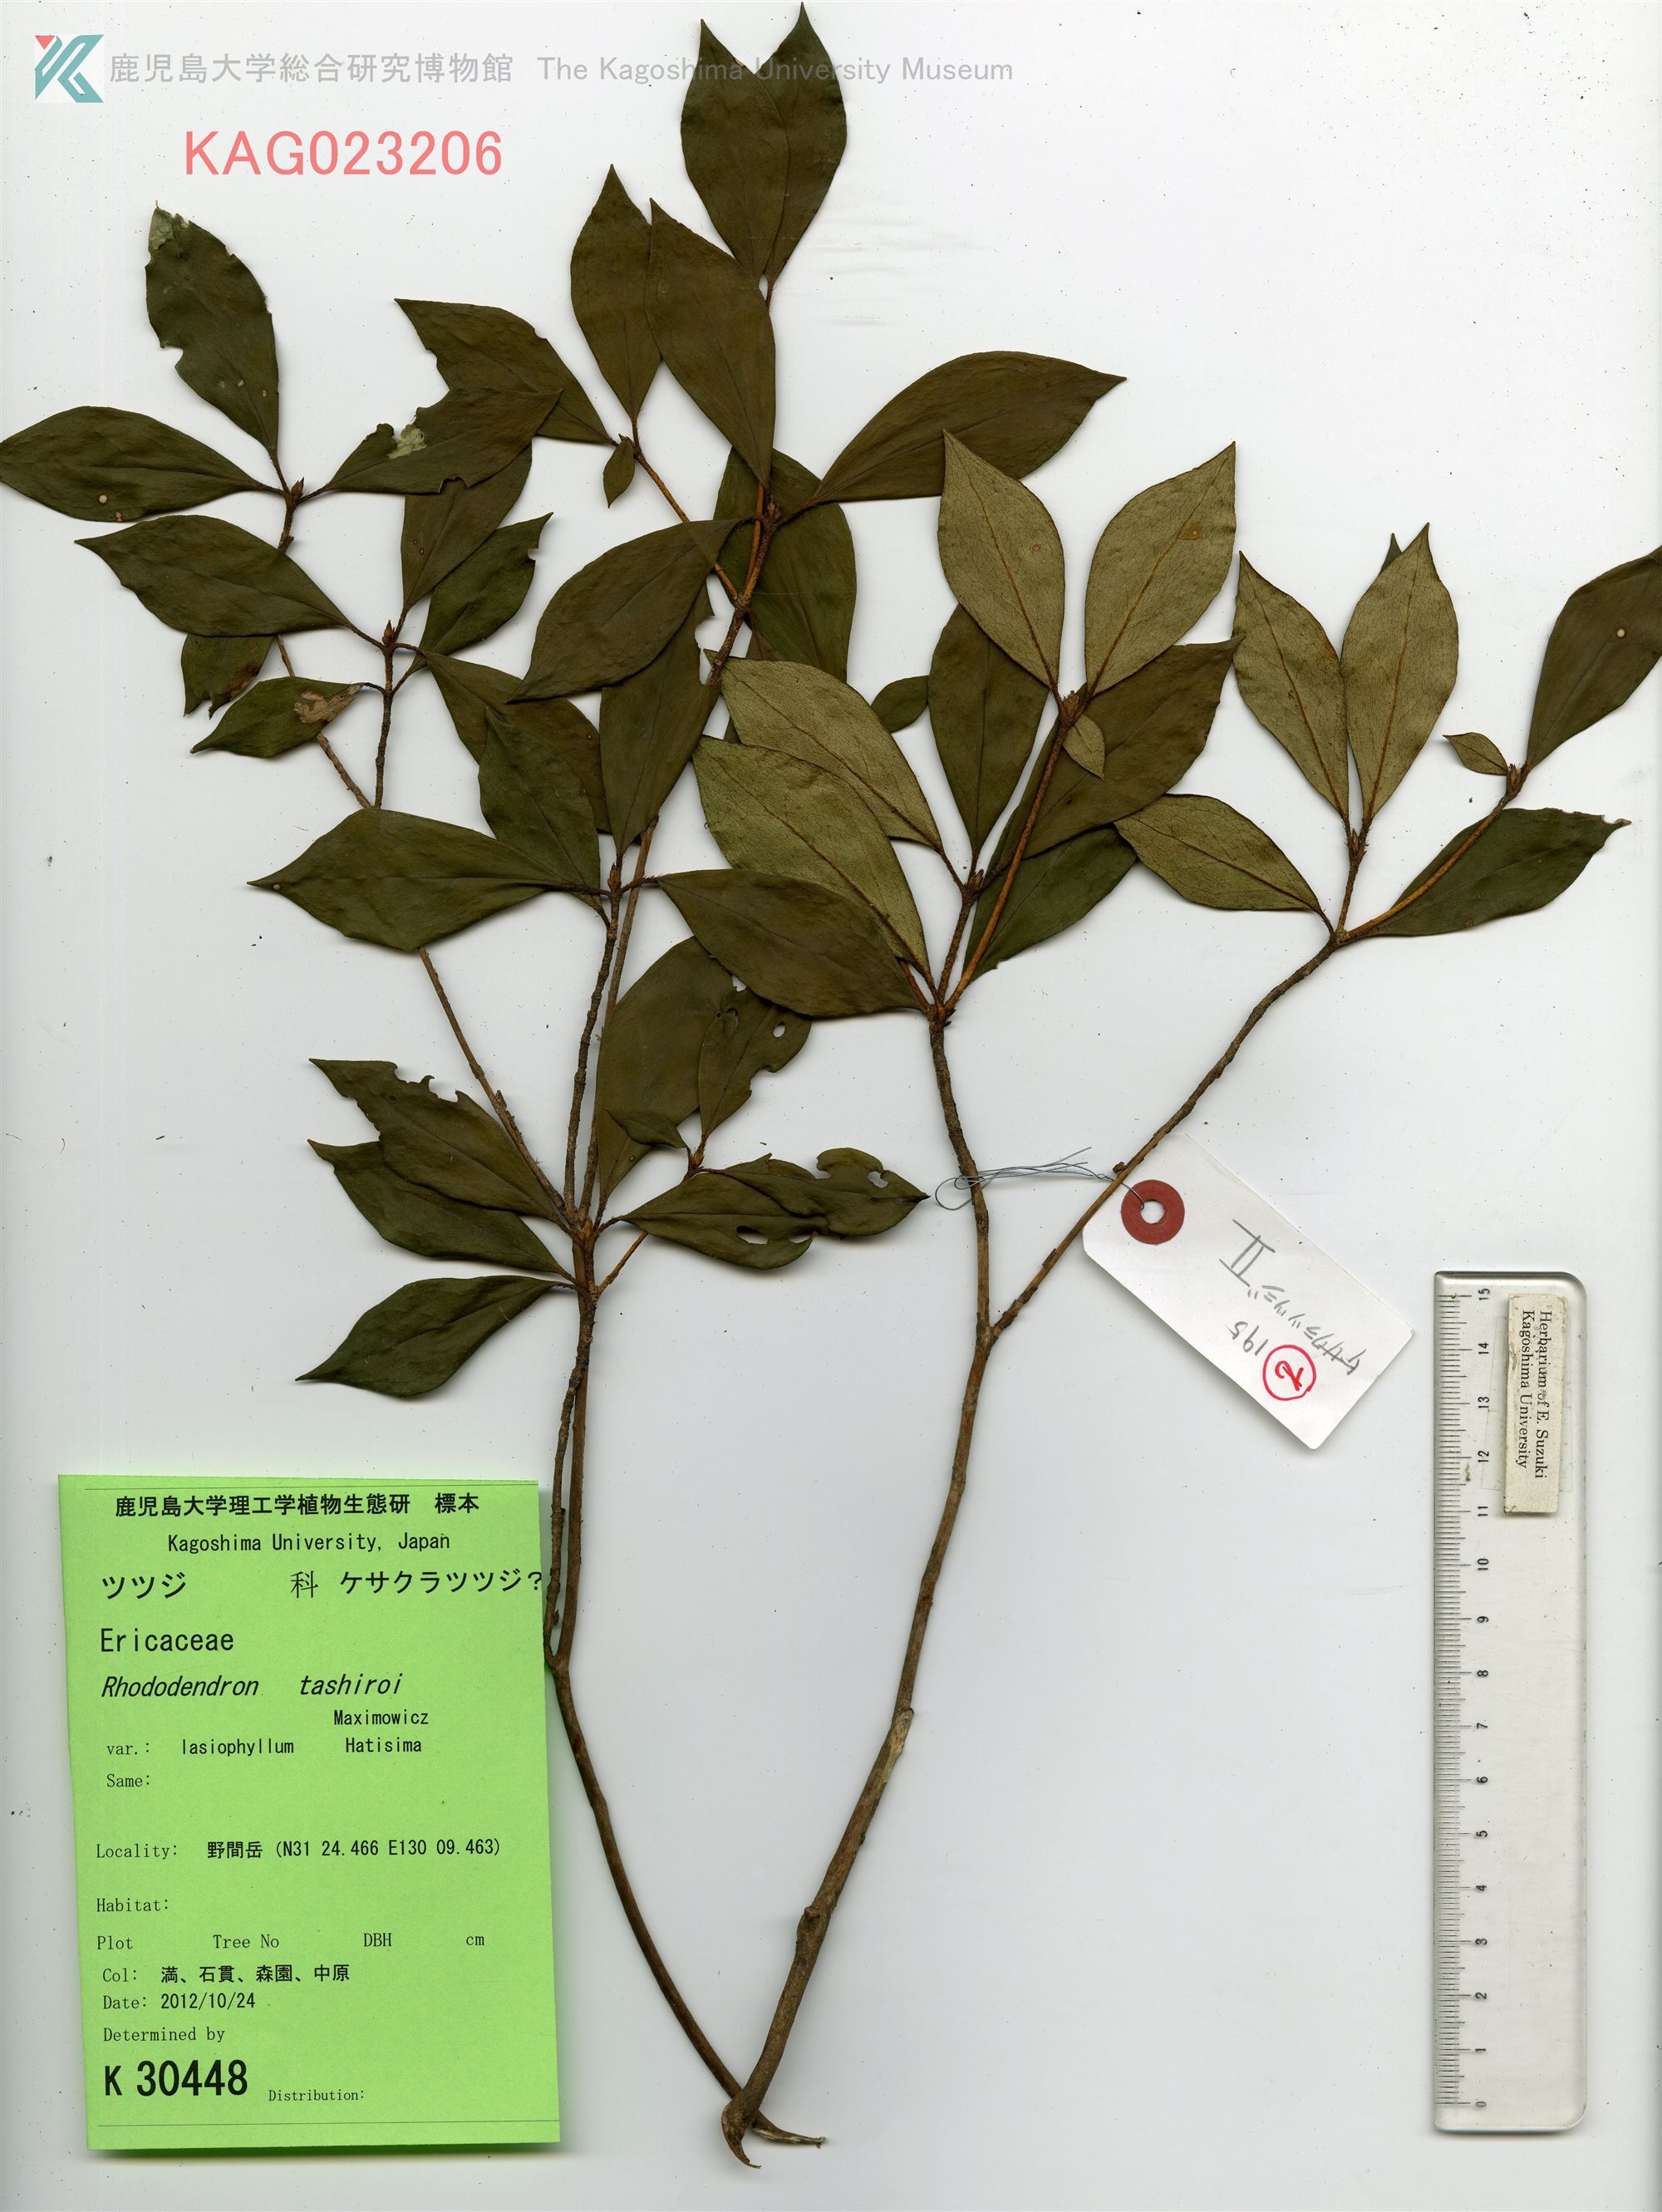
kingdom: Plantae
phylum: Tracheophyta
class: Magnoliopsida
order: Ericales
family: Ericaceae
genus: Rhododendron
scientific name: Rhododendron tashiroi
